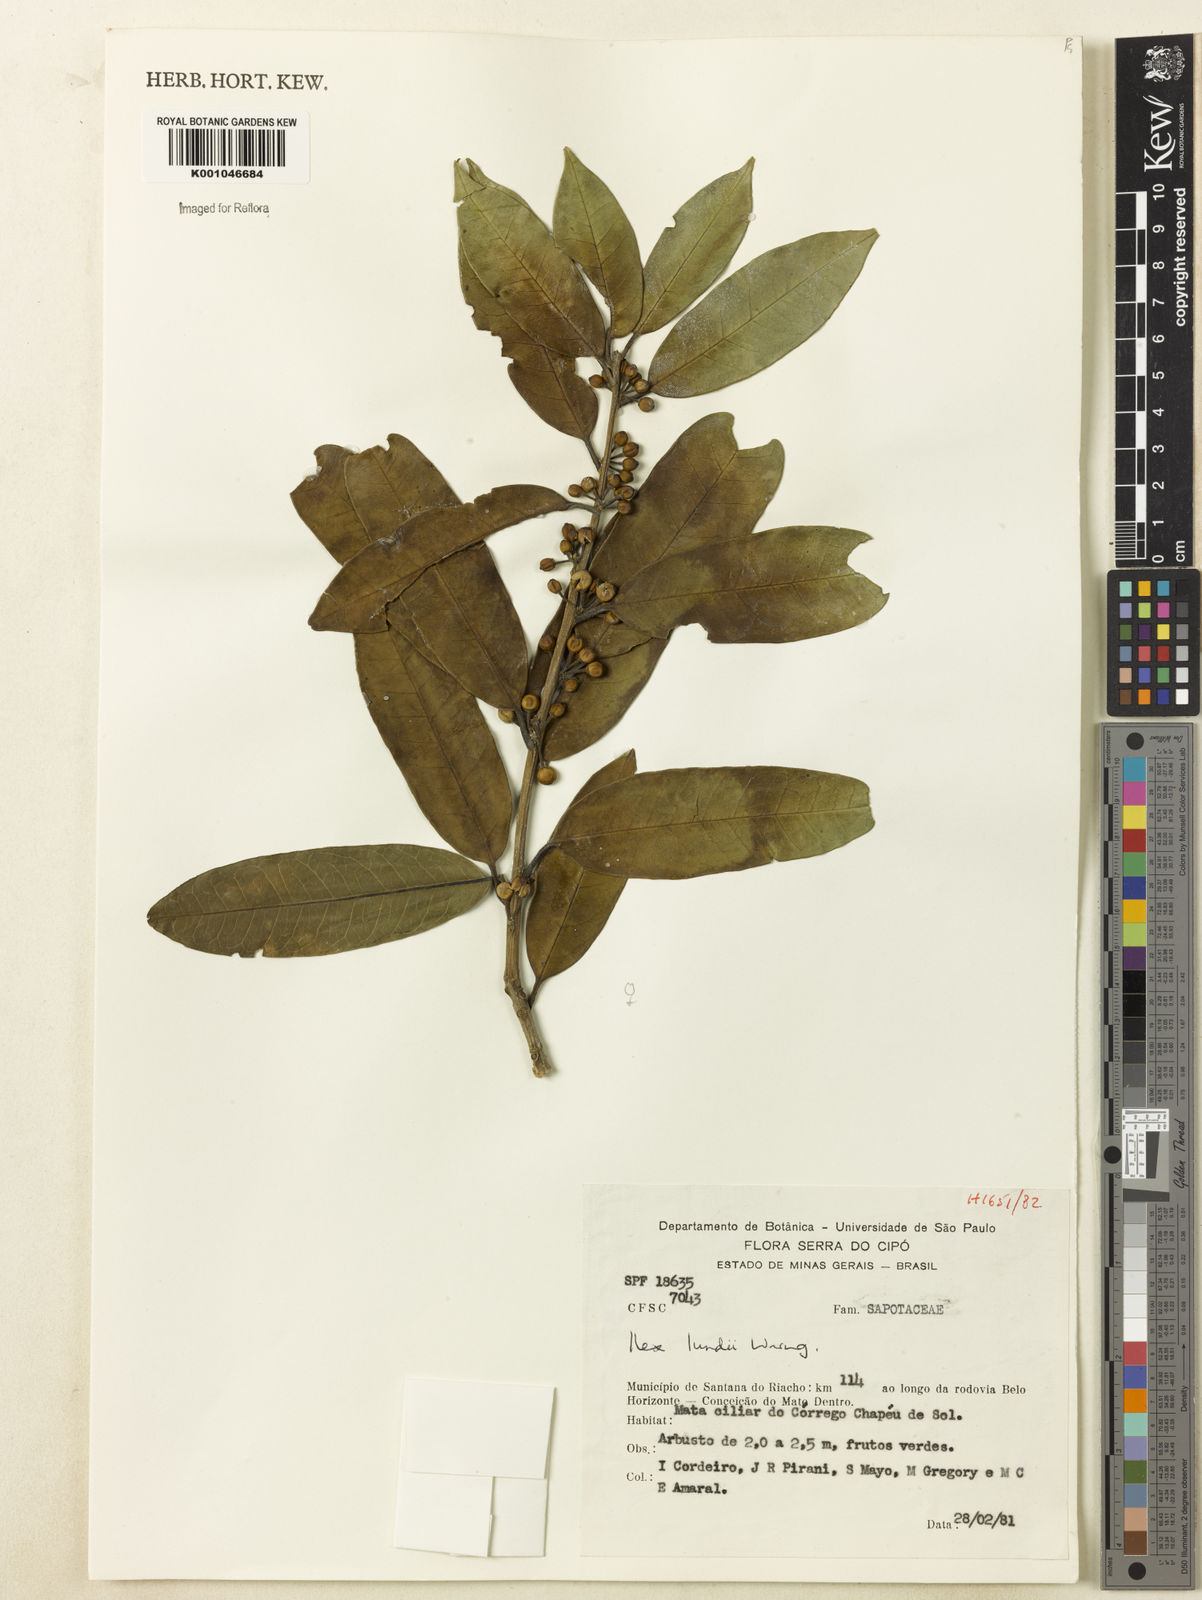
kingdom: Plantae
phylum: Tracheophyta
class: Magnoliopsida
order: Aquifoliales
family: Aquifoliaceae
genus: Ilex
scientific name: Ilex lundii
